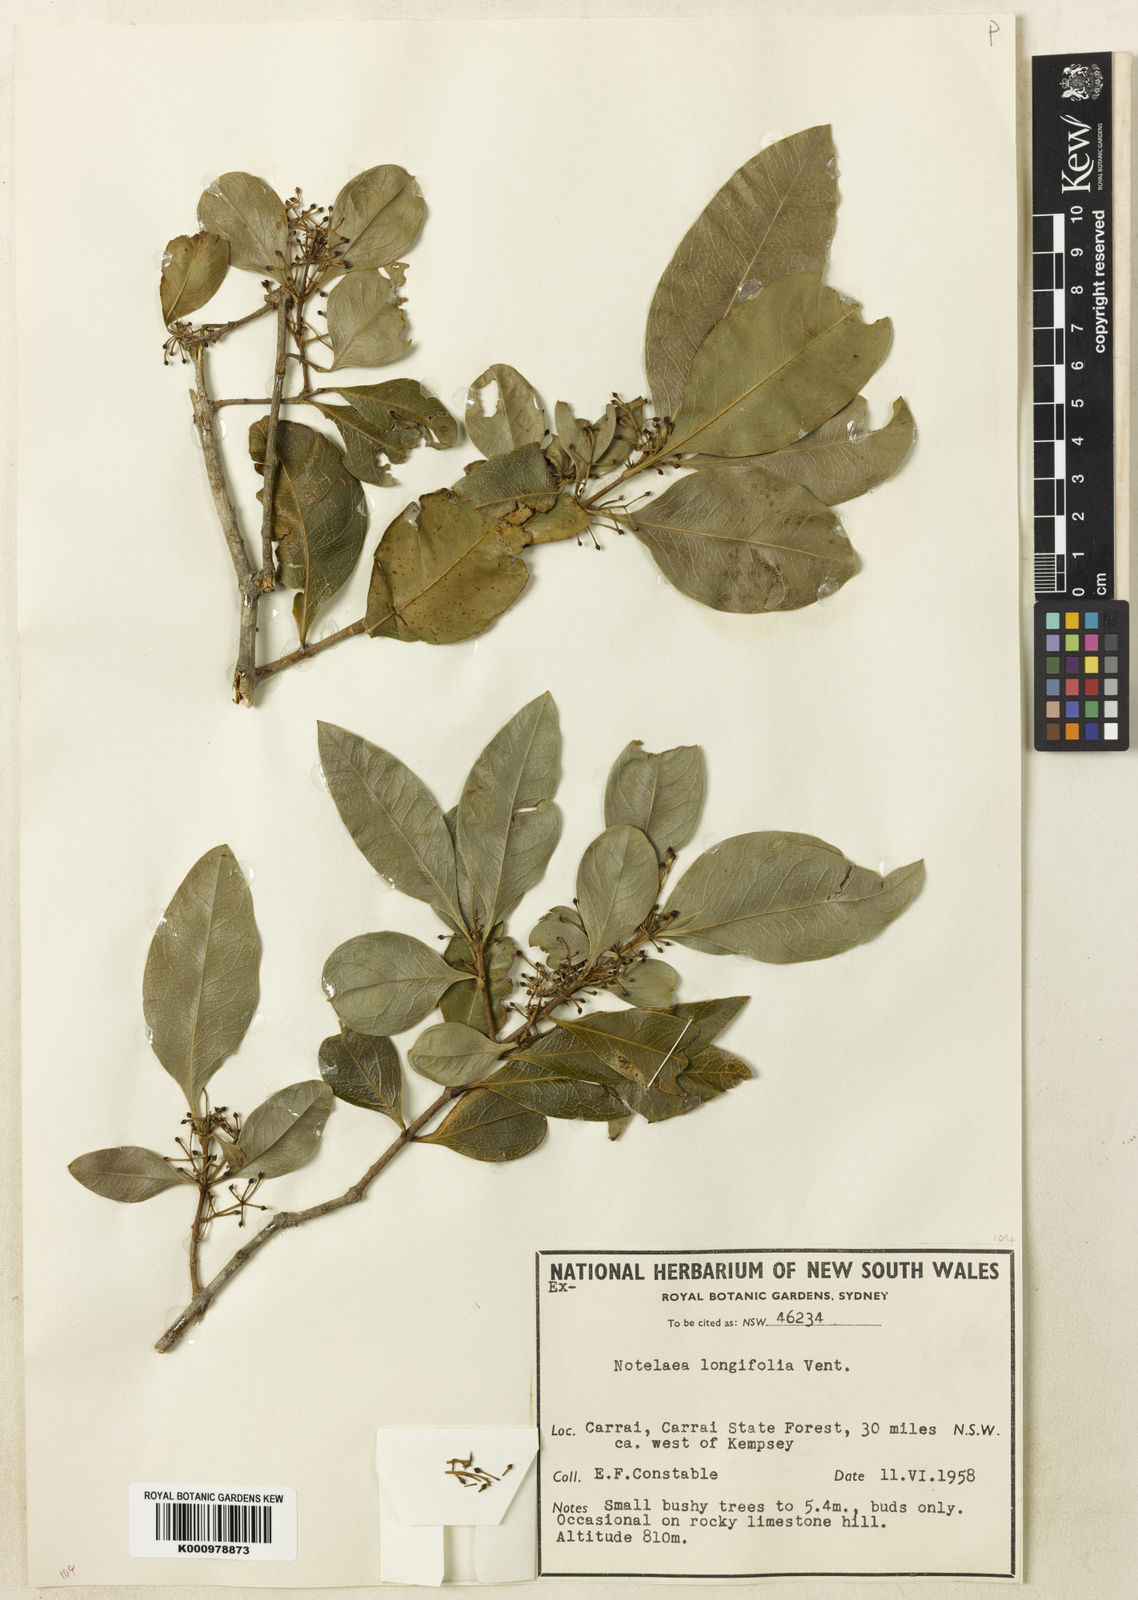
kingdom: Plantae
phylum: Tracheophyta
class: Magnoliopsida
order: Lamiales
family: Oleaceae
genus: Notelaea
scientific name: Notelaea longifolia
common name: Large mock olive
